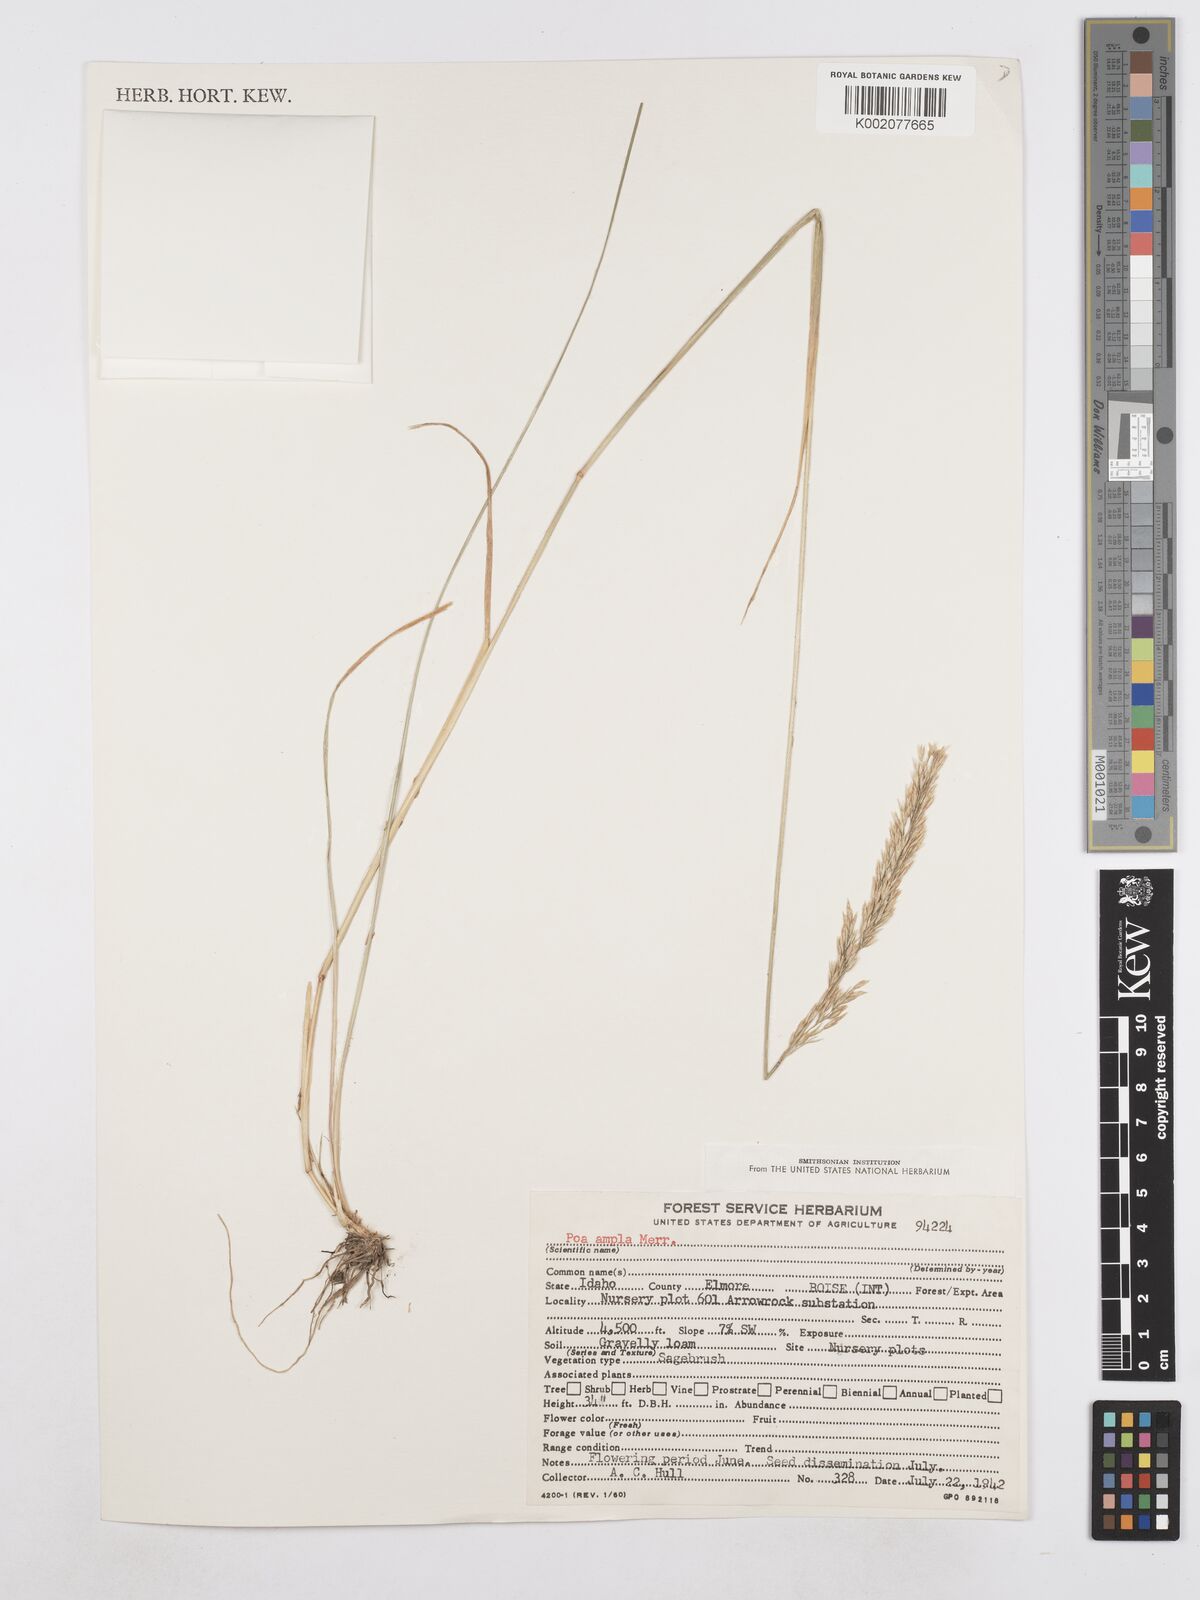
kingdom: Plantae
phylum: Tracheophyta
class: Liliopsida
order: Poales
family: Poaceae
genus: Poa
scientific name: Poa secunda
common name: Sandberg bluegrass
